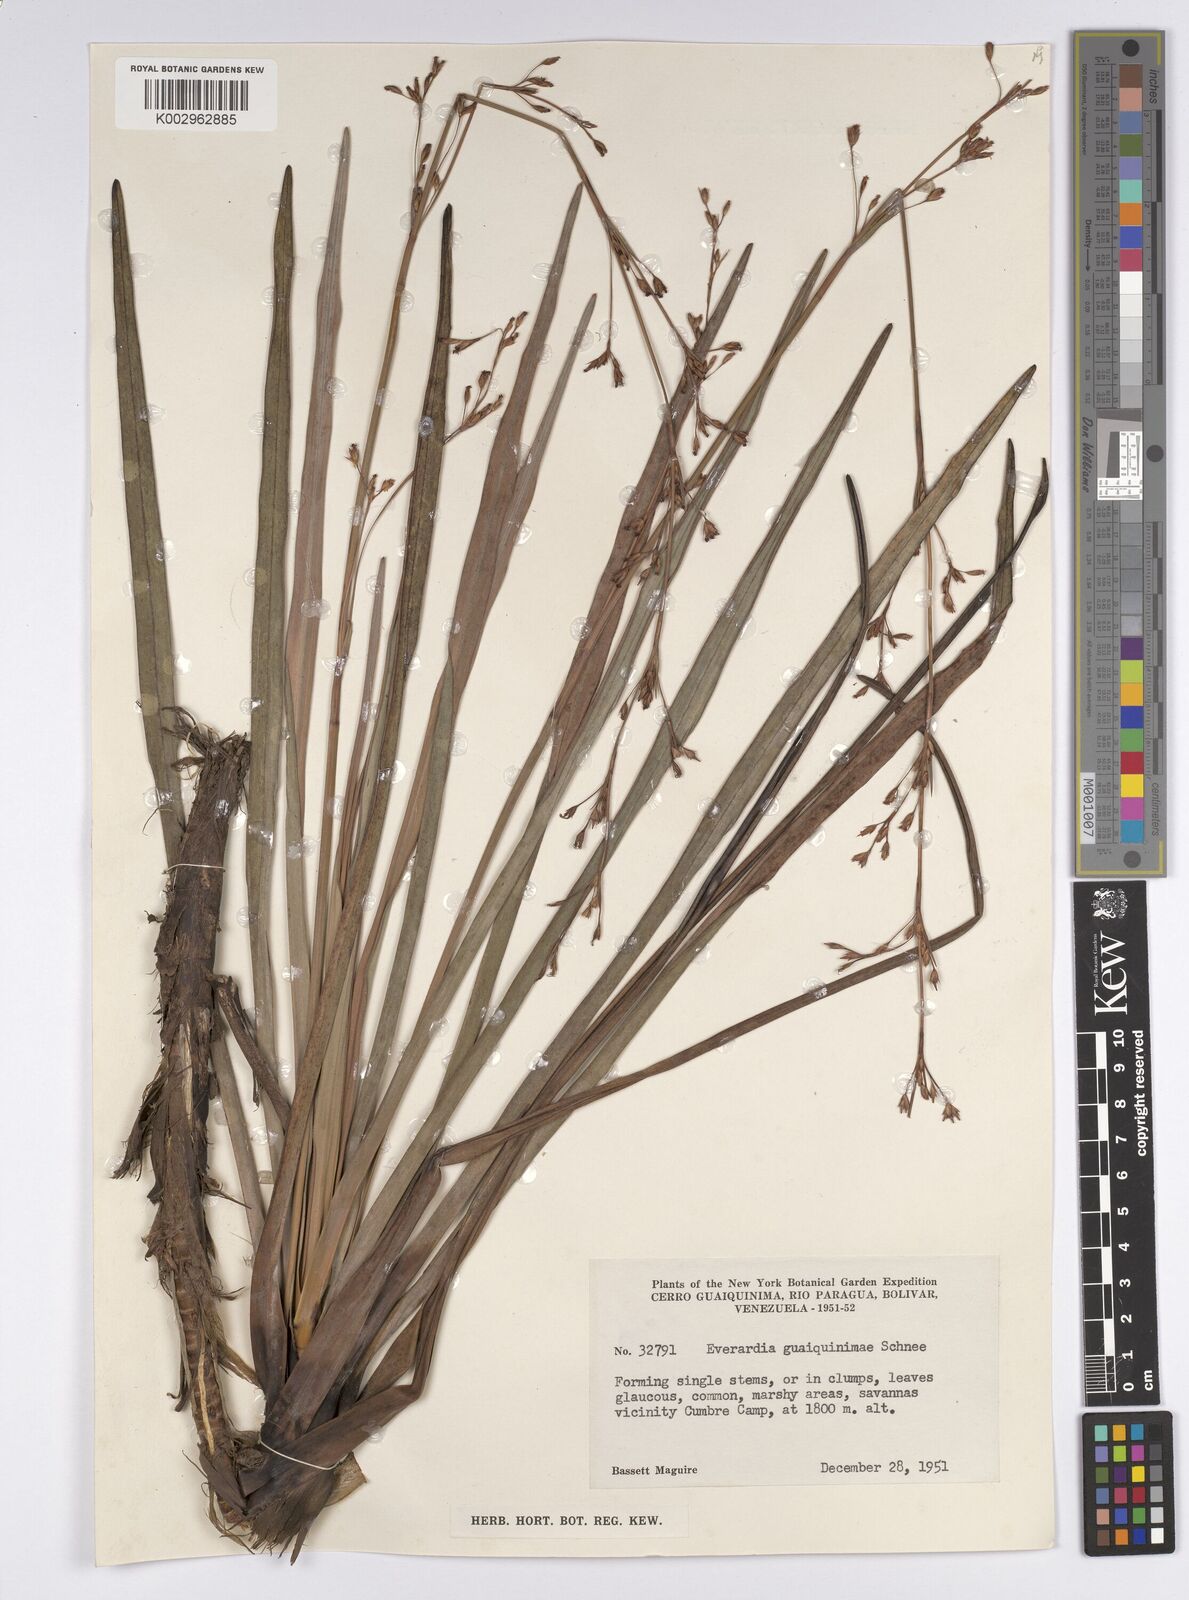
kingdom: Plantae
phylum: Tracheophyta
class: Liliopsida
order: Poales
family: Cyperaceae
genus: Cephalocarpus
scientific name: Cephalocarpus montanus
